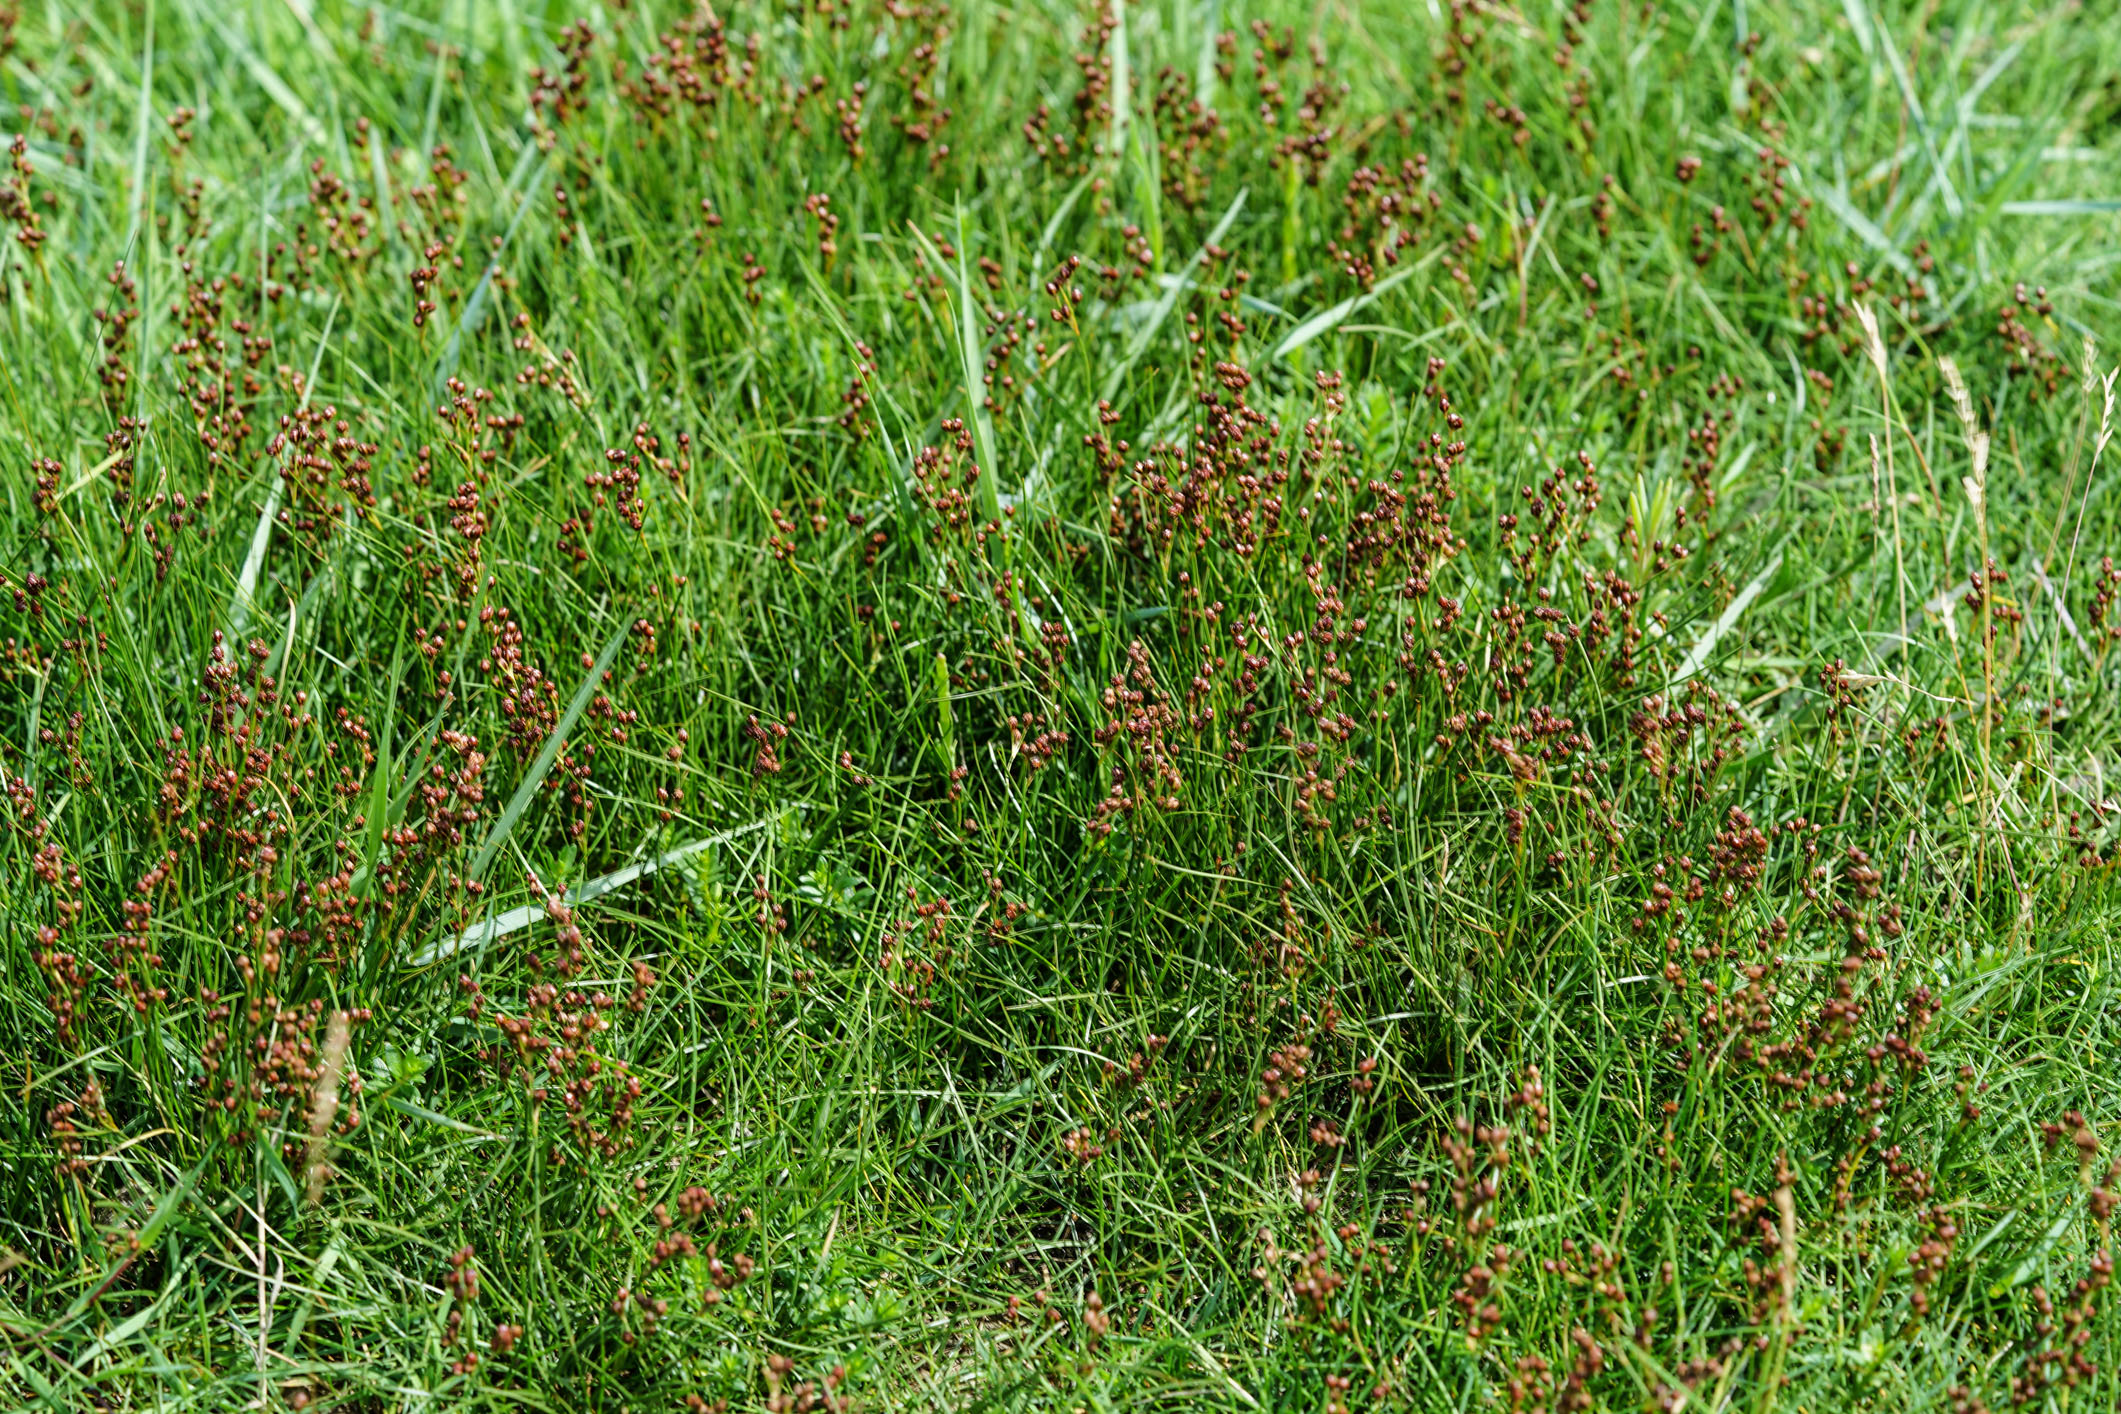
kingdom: Plantae
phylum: Tracheophyta
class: Liliopsida
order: Poales
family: Juncaceae
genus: Juncus
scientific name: Juncus gerardi
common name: Saltmarsh rush
